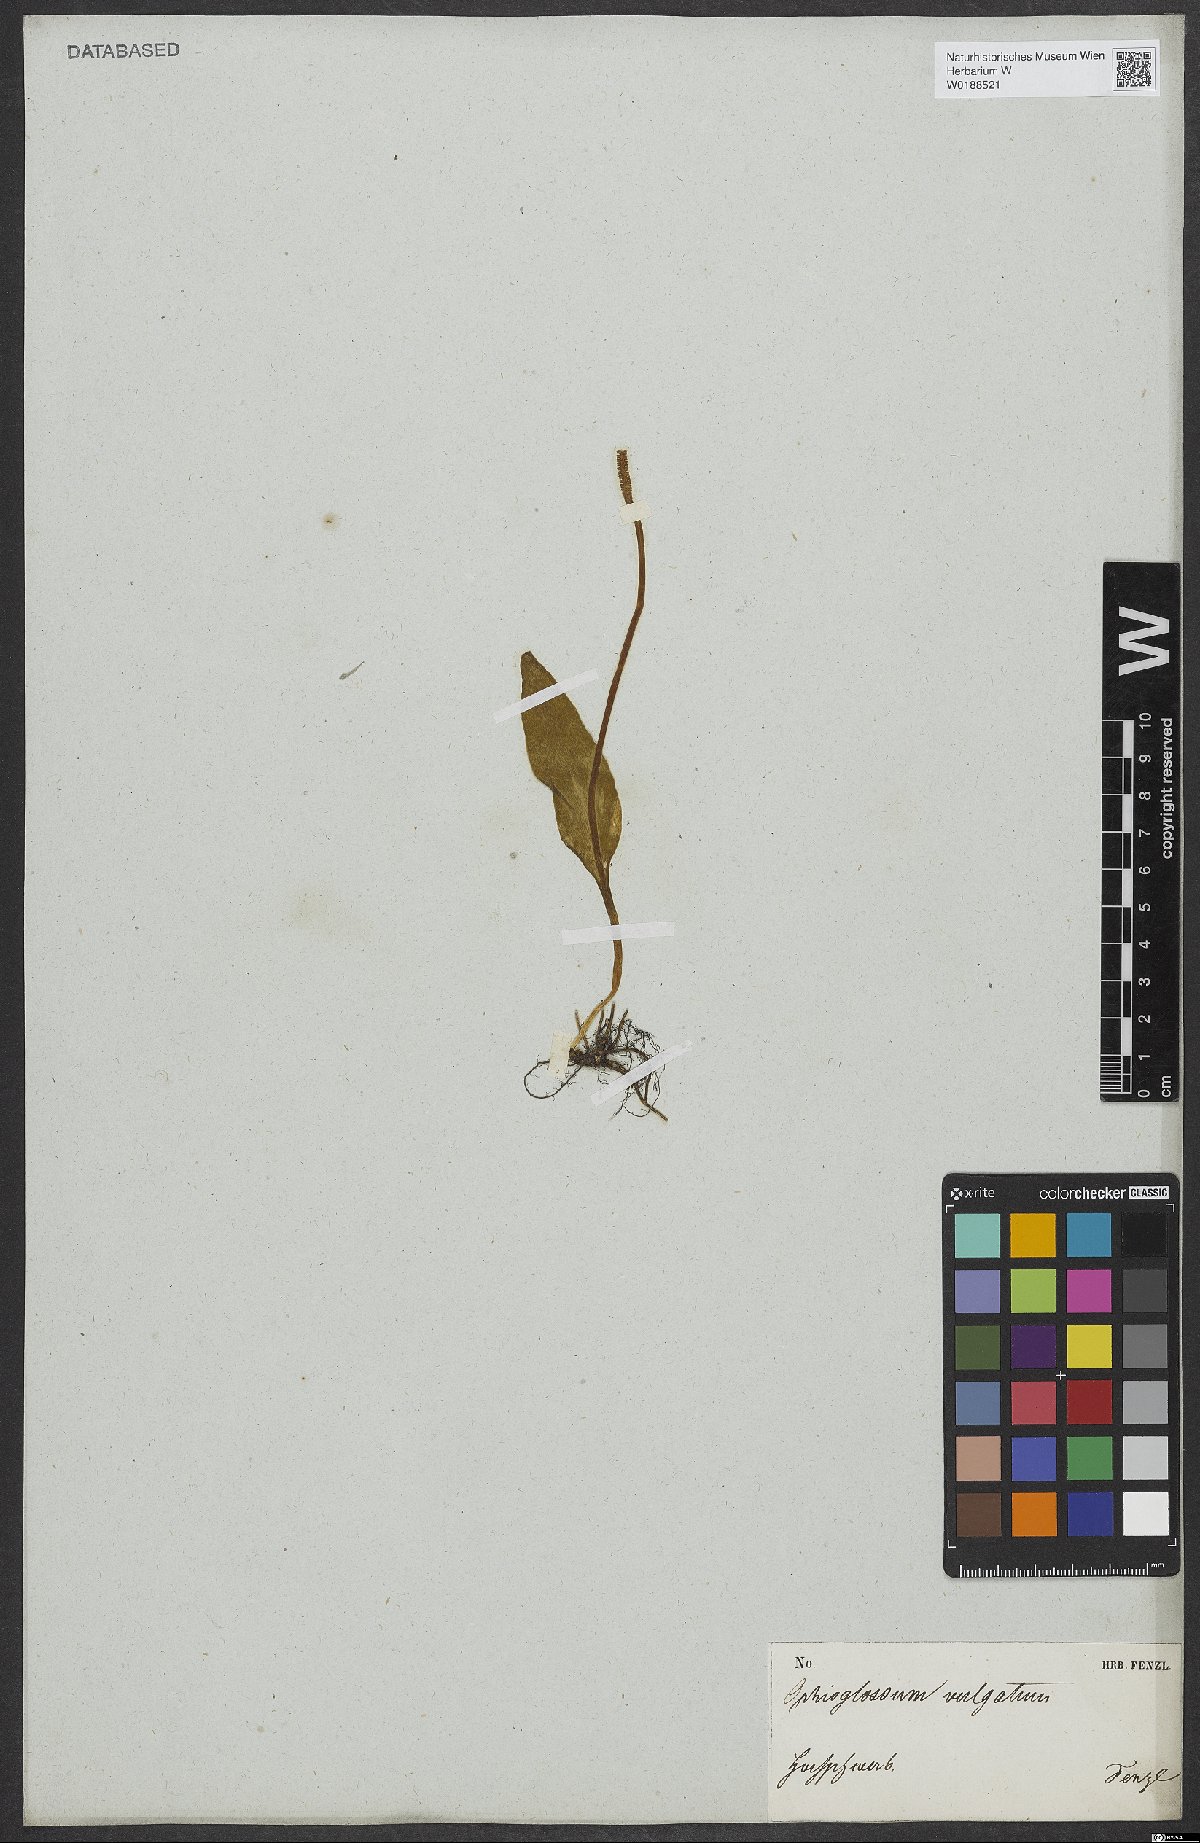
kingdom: Plantae
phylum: Tracheophyta
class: Polypodiopsida
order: Ophioglossales
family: Ophioglossaceae
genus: Ophioglossum
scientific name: Ophioglossum vulgatum
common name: Adder's-tongue
